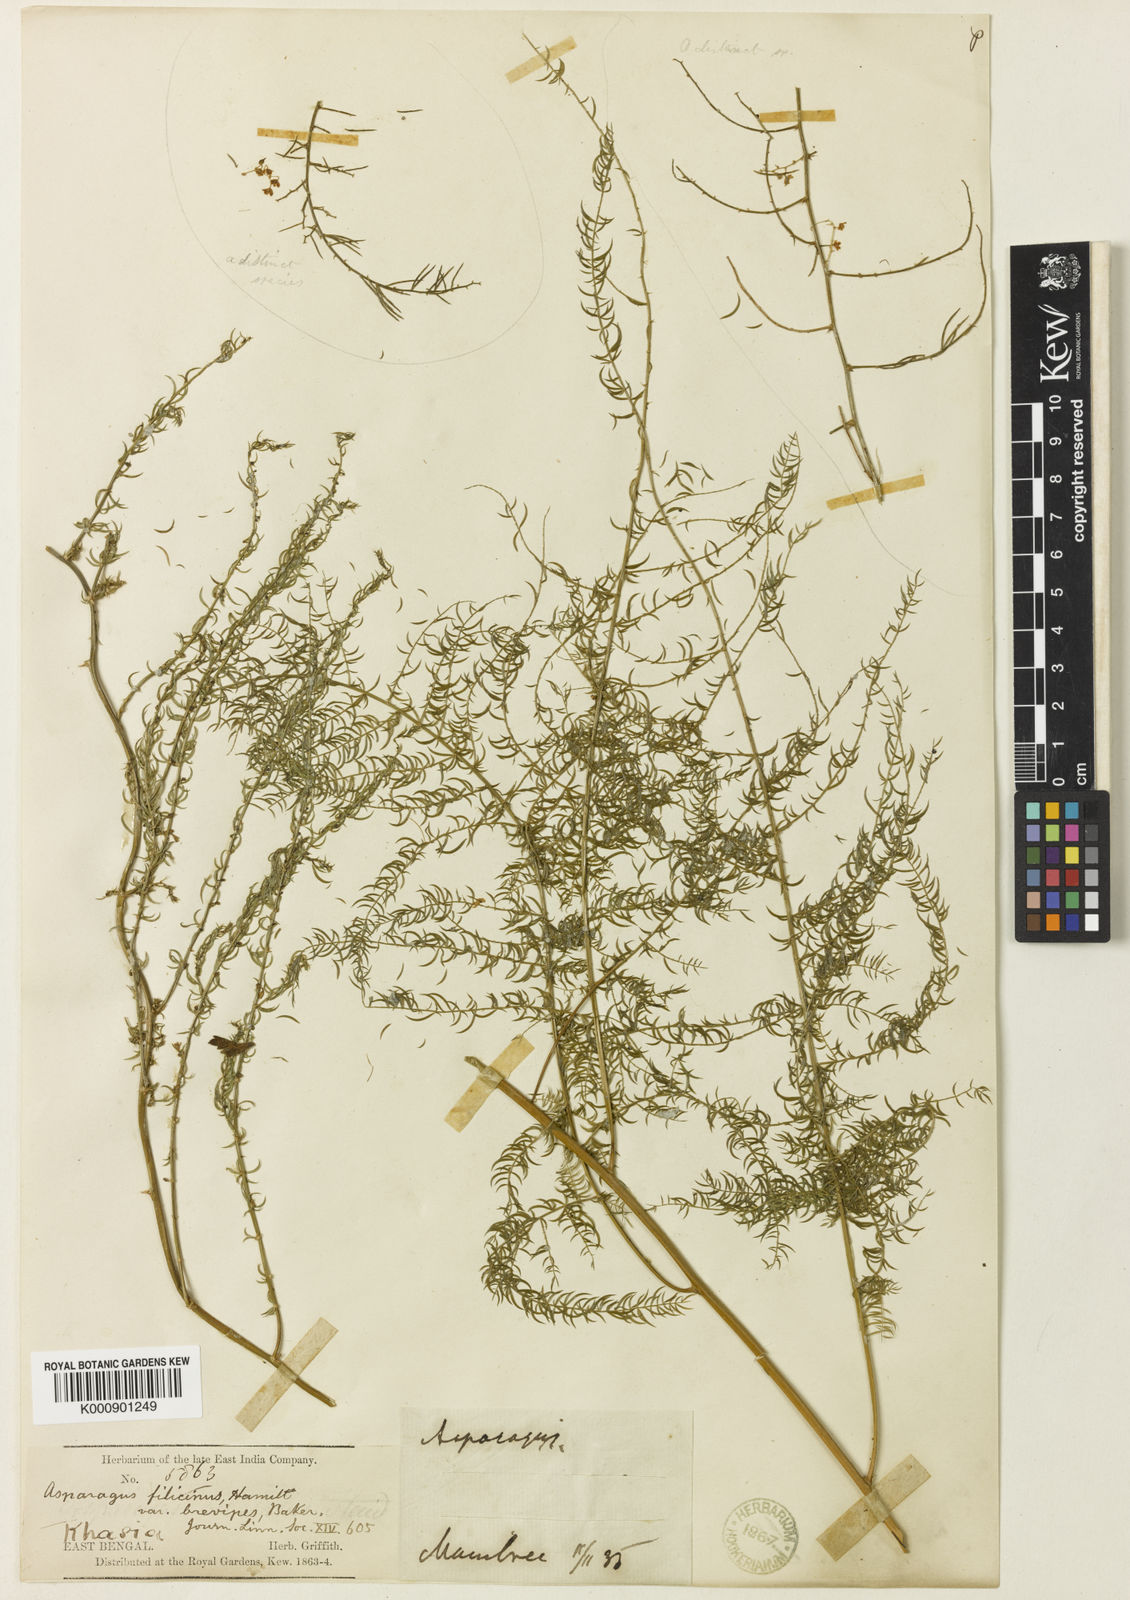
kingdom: Plantae
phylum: Tracheophyta
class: Liliopsida
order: Asparagales
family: Asparagaceae
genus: Asparagus
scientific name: Asparagus filicinus
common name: Fern asparagus
